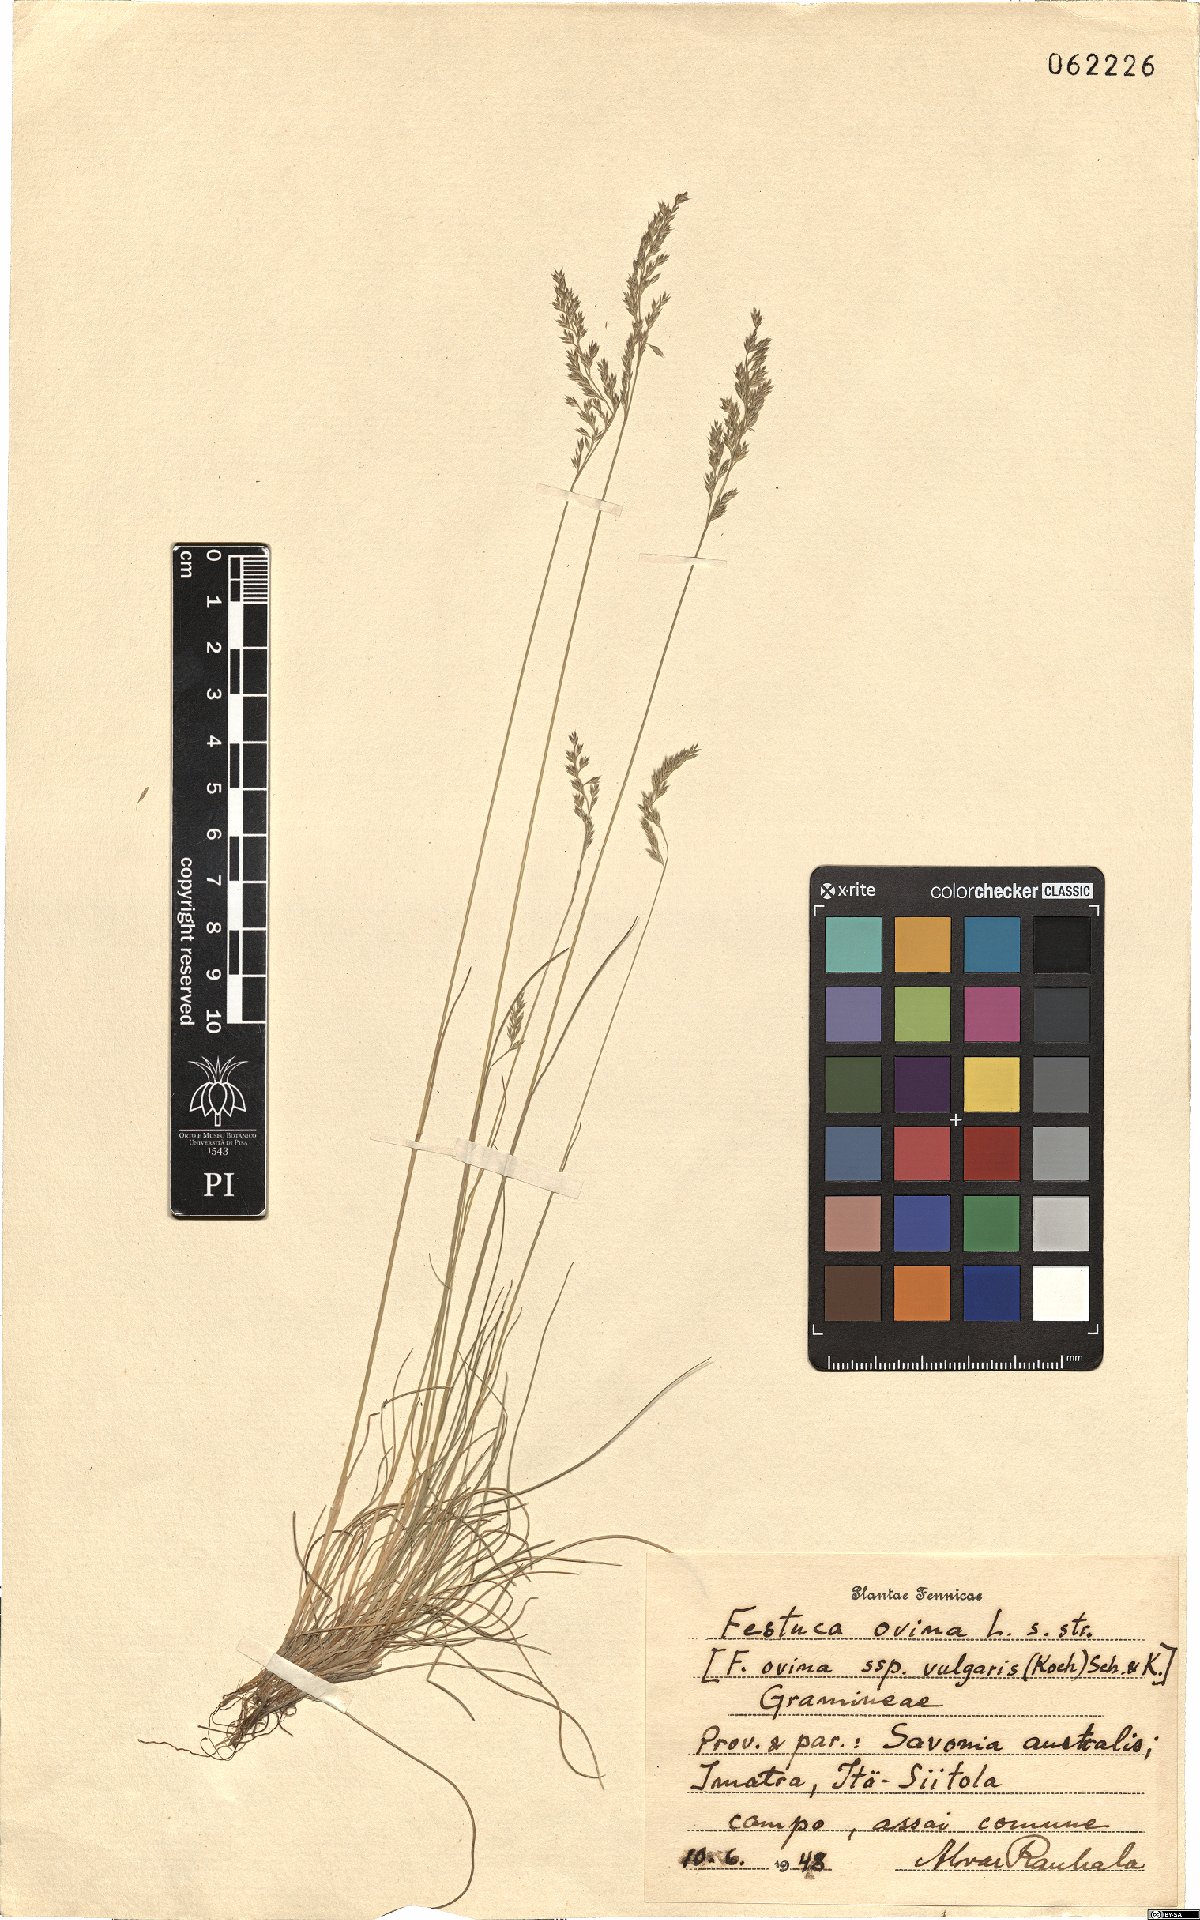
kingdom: Plantae
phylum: Tracheophyta
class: Liliopsida
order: Poales
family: Poaceae
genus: Festuca
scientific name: Festuca ovina
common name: Sheep fescue
